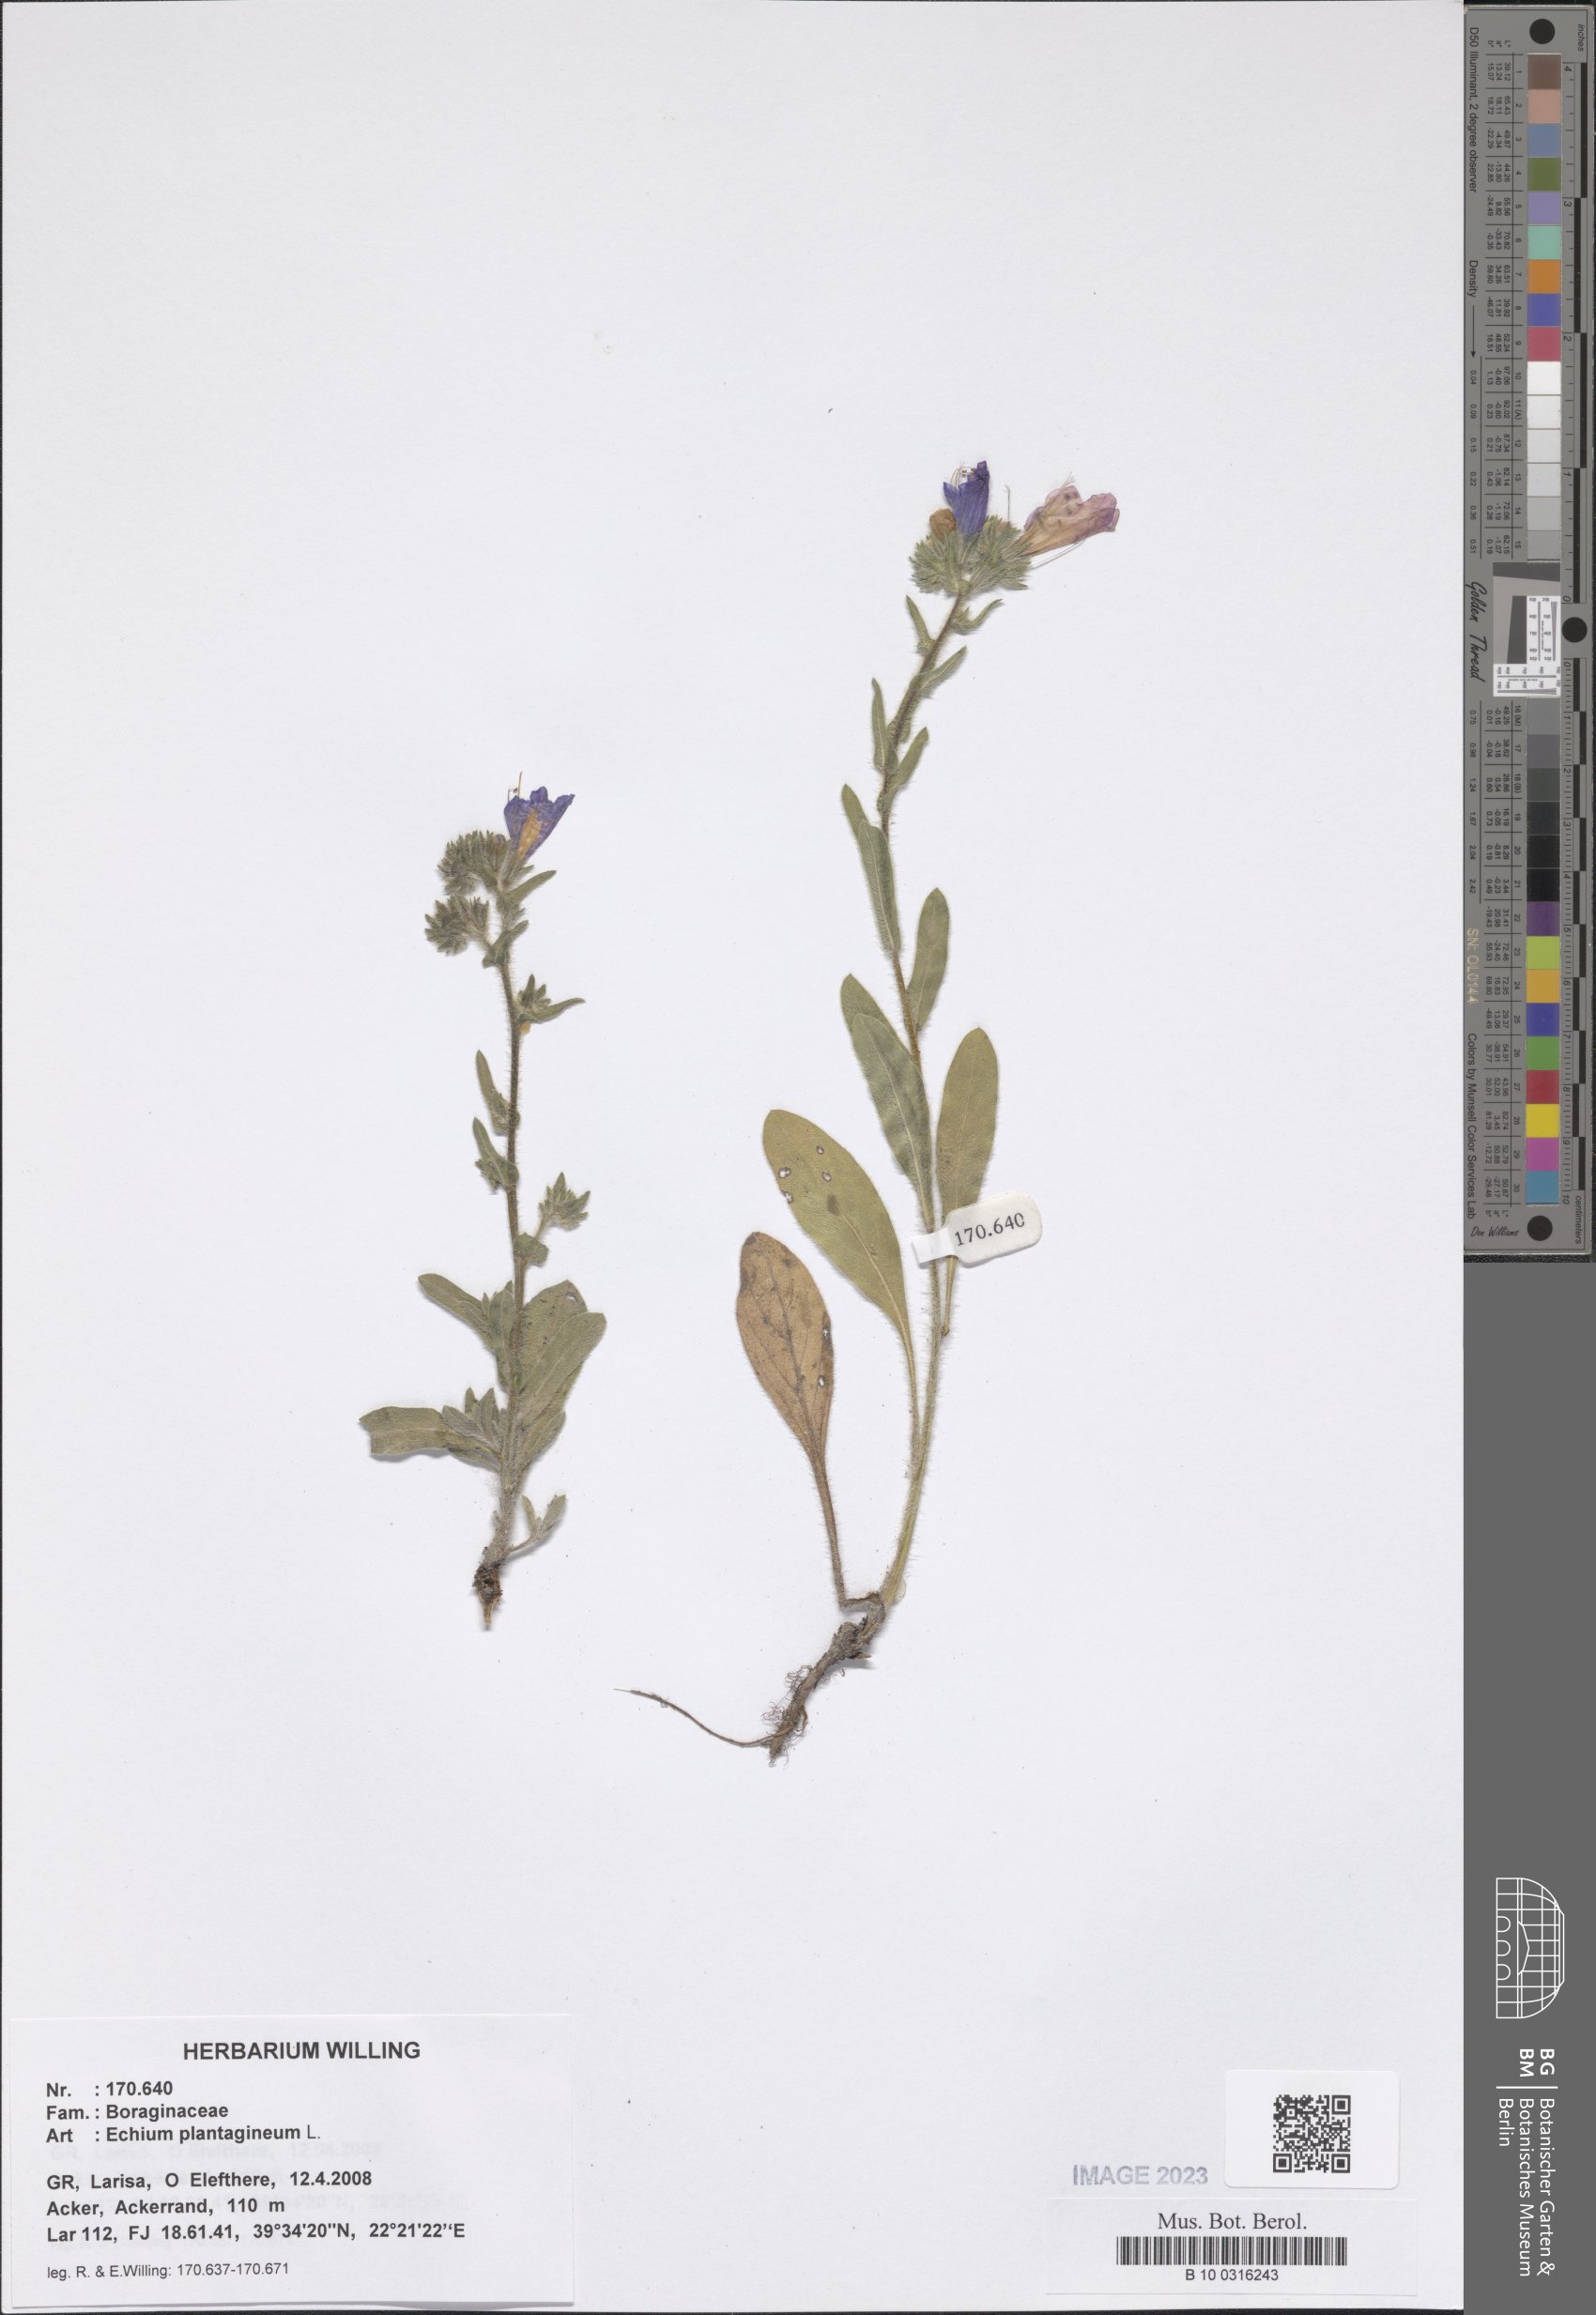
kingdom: Plantae
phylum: Tracheophyta
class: Magnoliopsida
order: Boraginales
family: Boraginaceae
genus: Echium
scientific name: Echium plantagineum
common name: Purple viper's-bugloss
